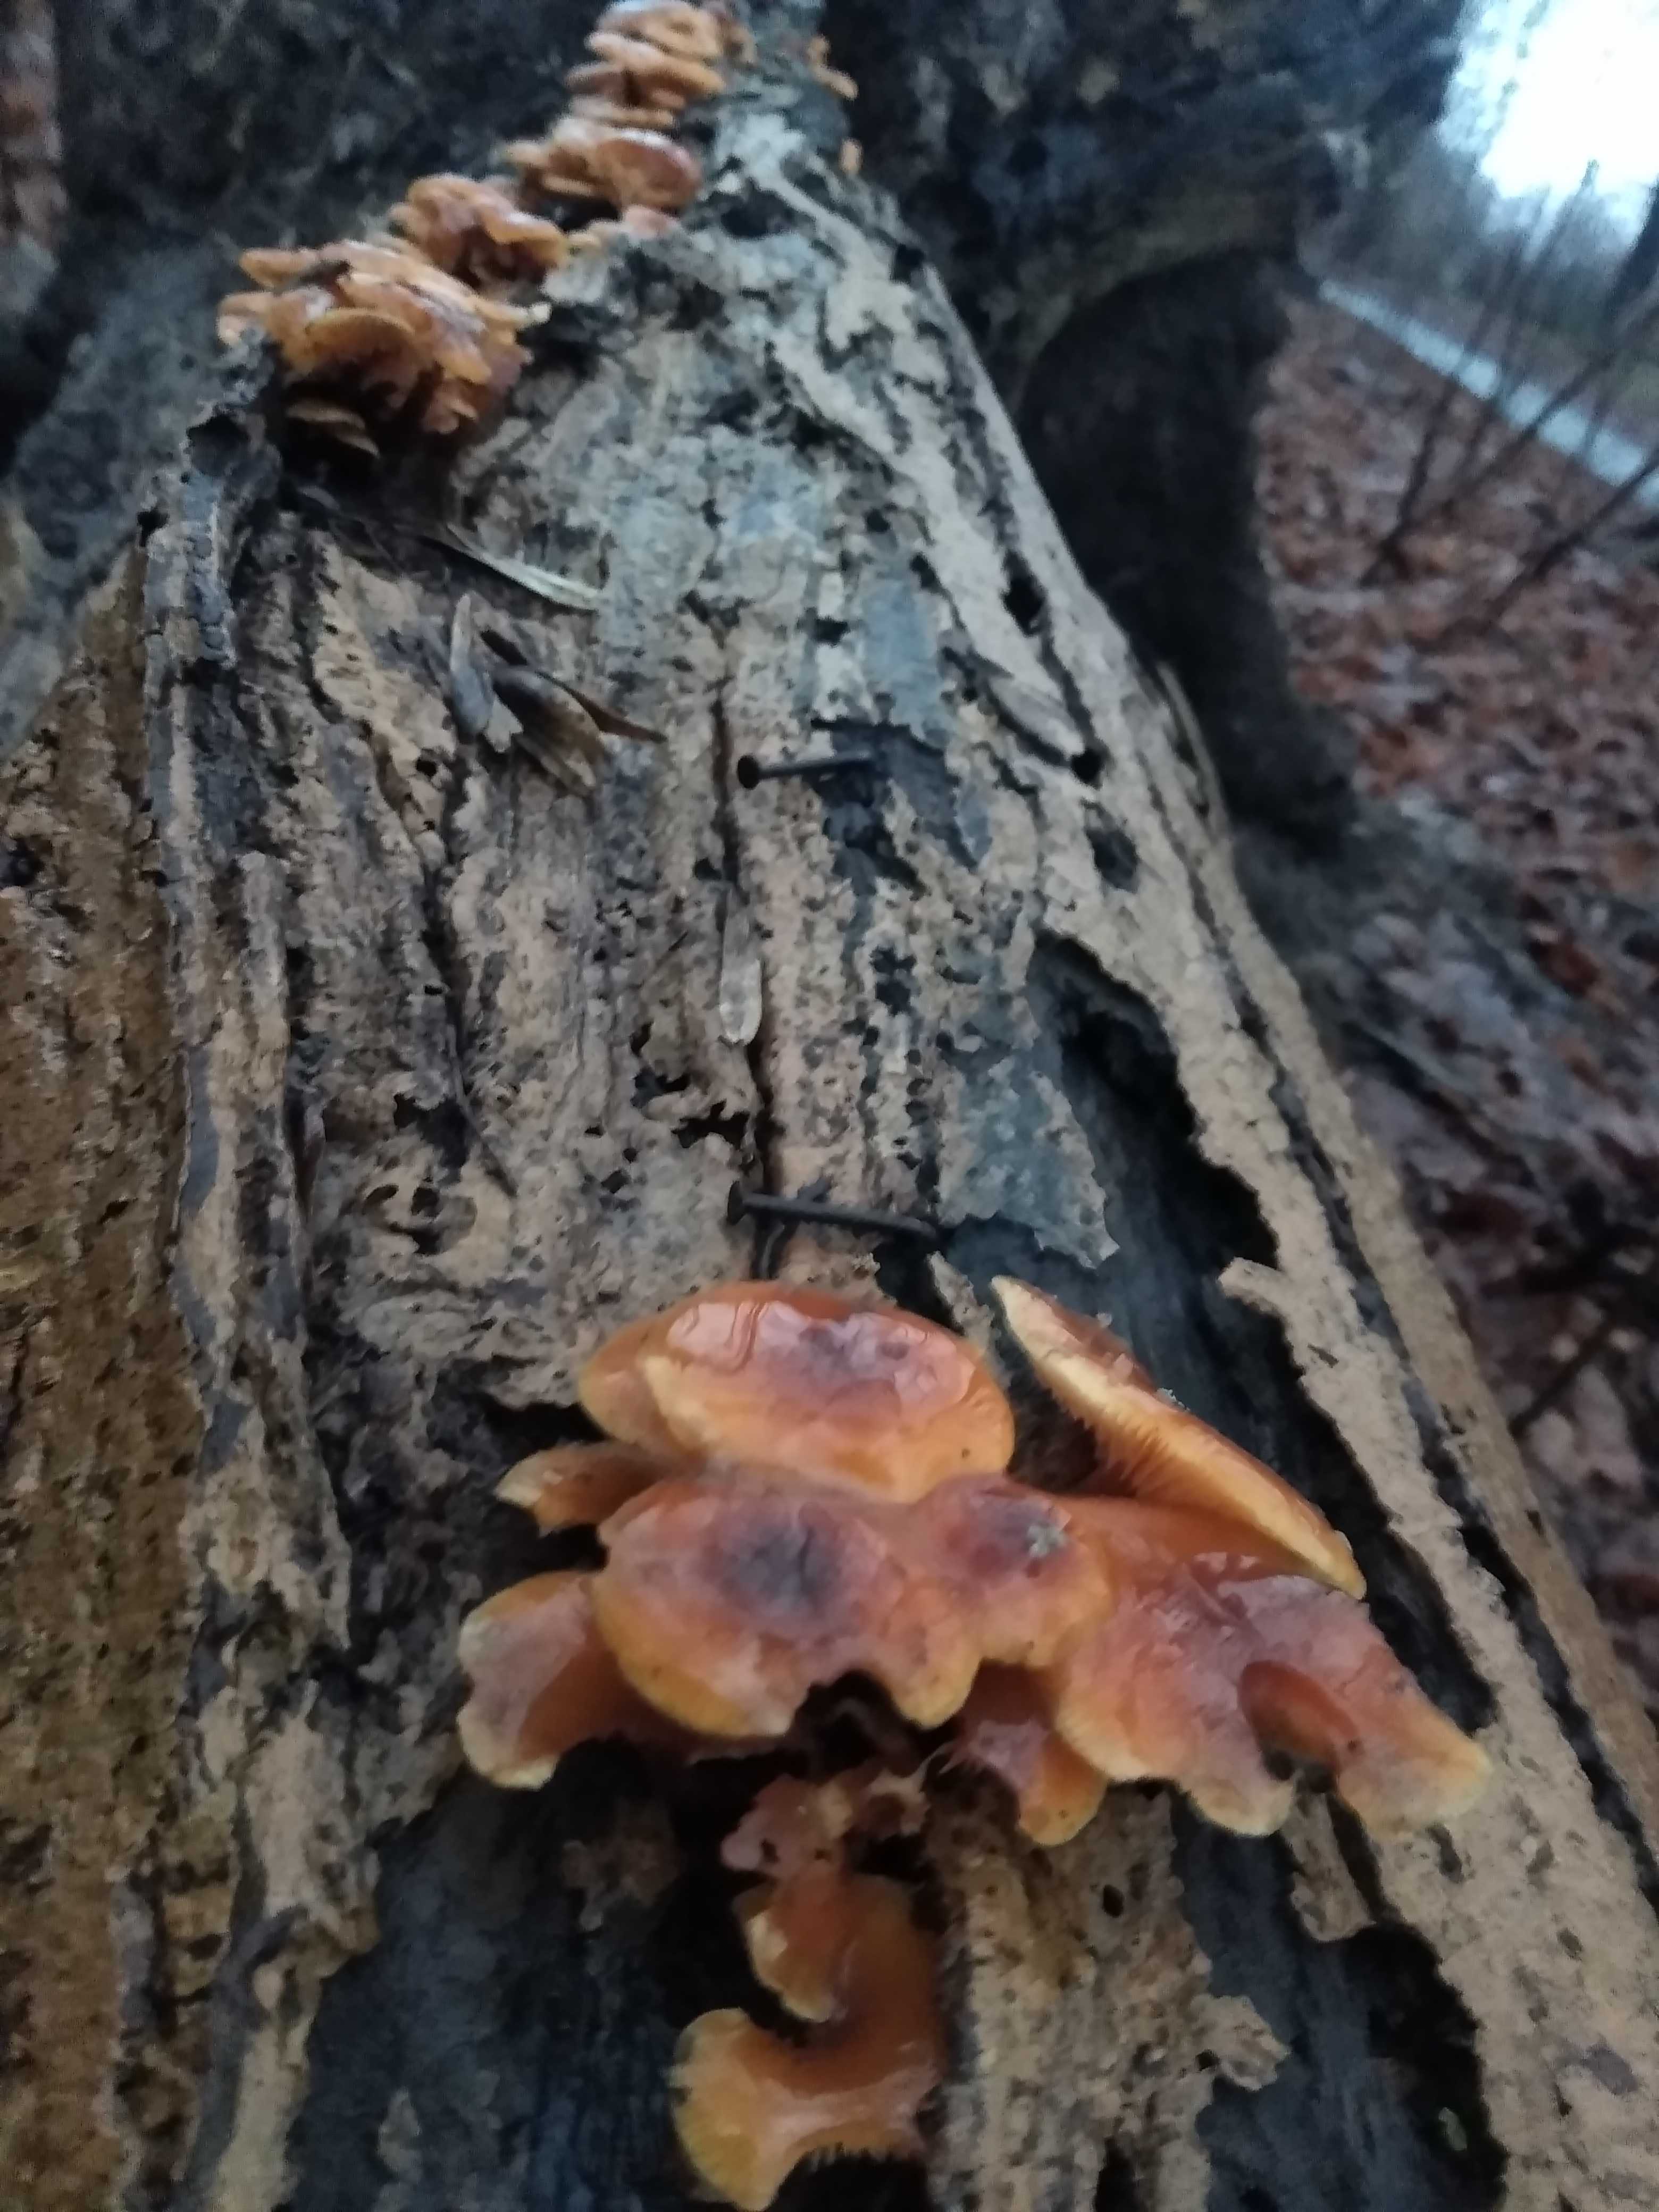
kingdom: Fungi
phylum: Basidiomycota
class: Agaricomycetes
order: Agaricales
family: Physalacriaceae
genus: Flammulina
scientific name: Flammulina
